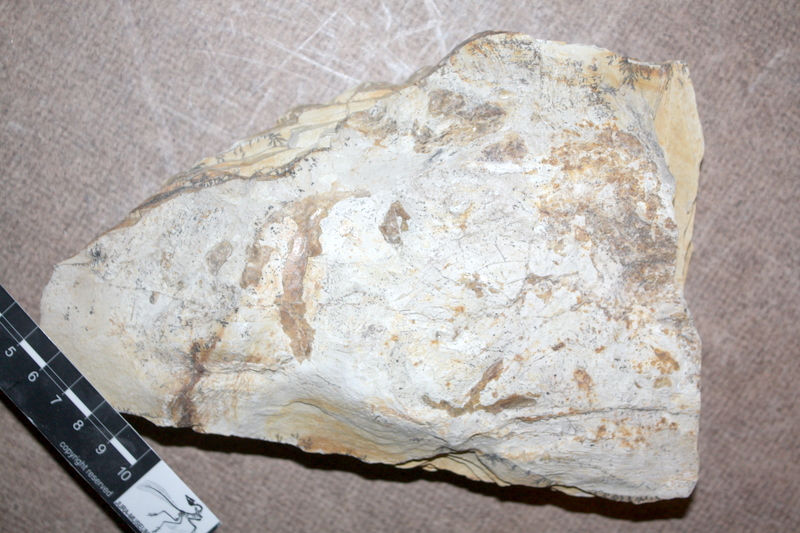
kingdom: Animalia
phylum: Chordata
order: Amiiformes
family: Caturidae
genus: Caturus
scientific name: Caturus
